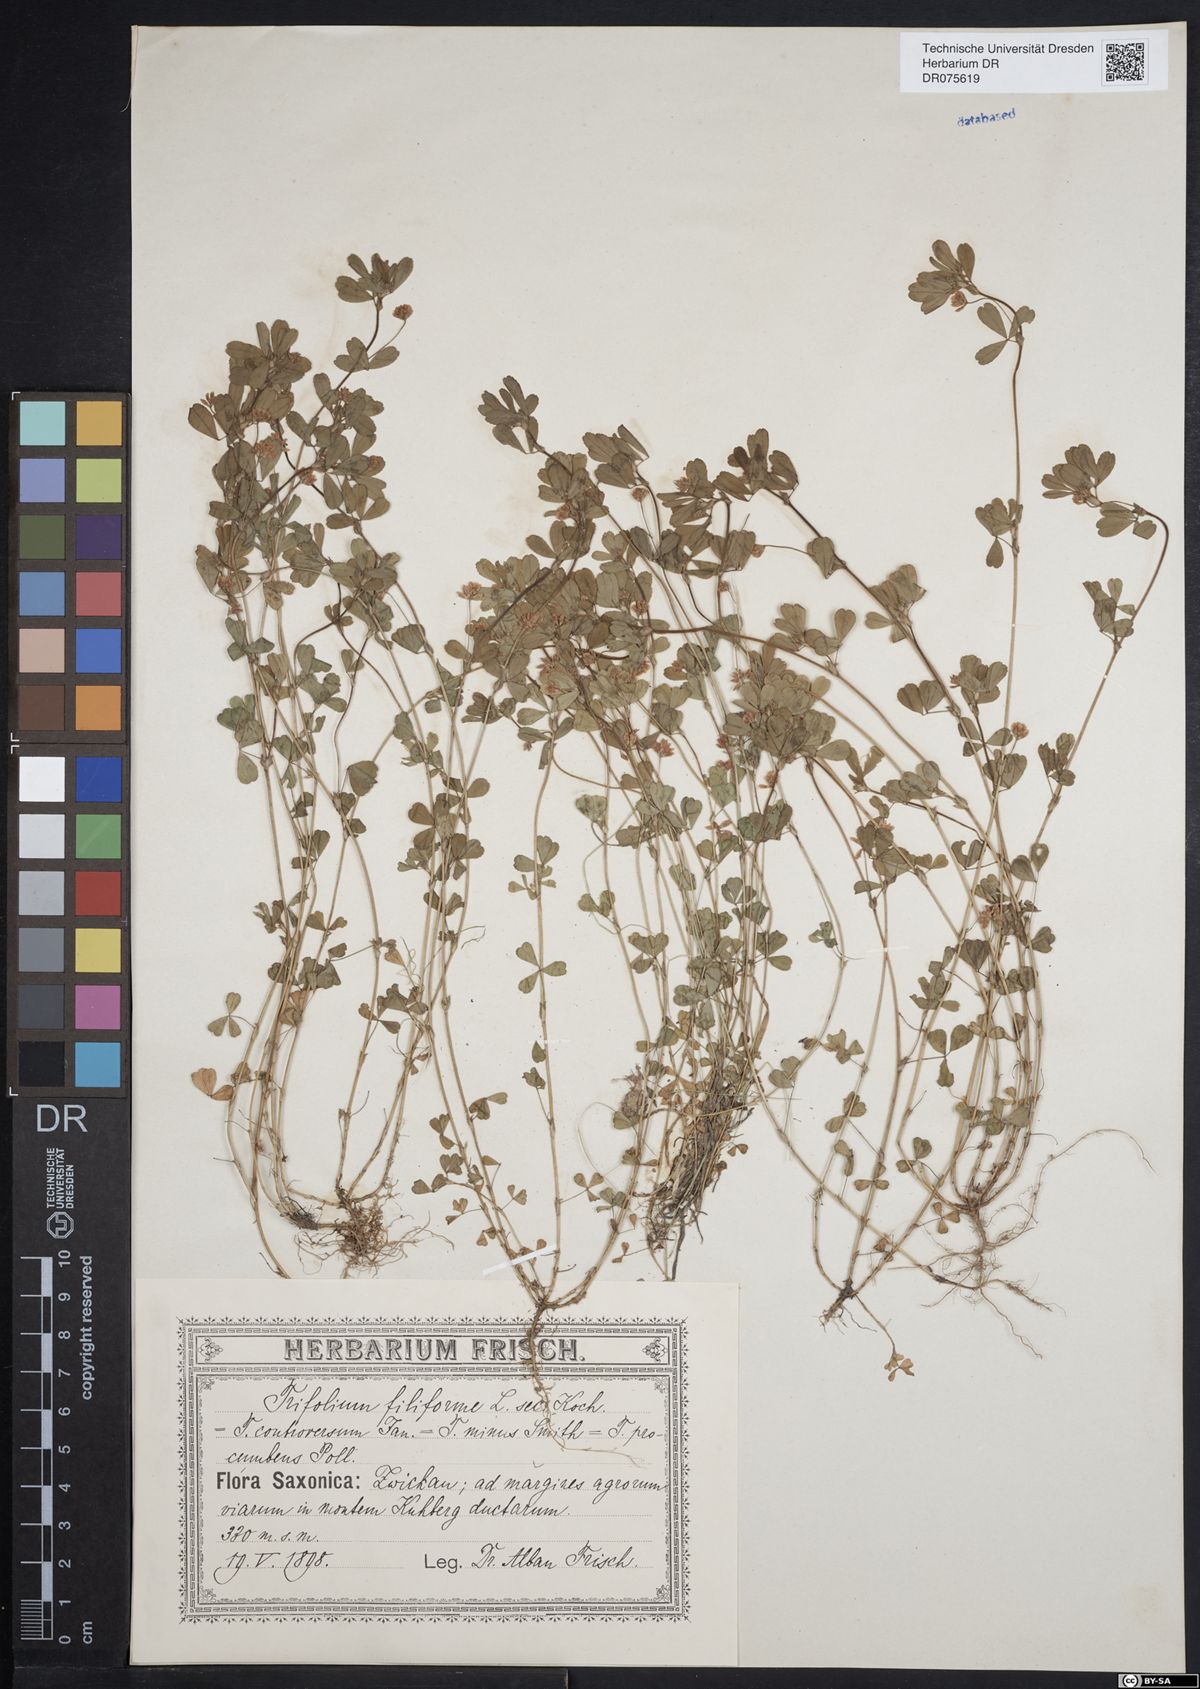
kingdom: Plantae
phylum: Tracheophyta
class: Magnoliopsida
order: Fabales
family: Fabaceae
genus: Trifolium
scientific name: Trifolium dubium
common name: Suckling clover
